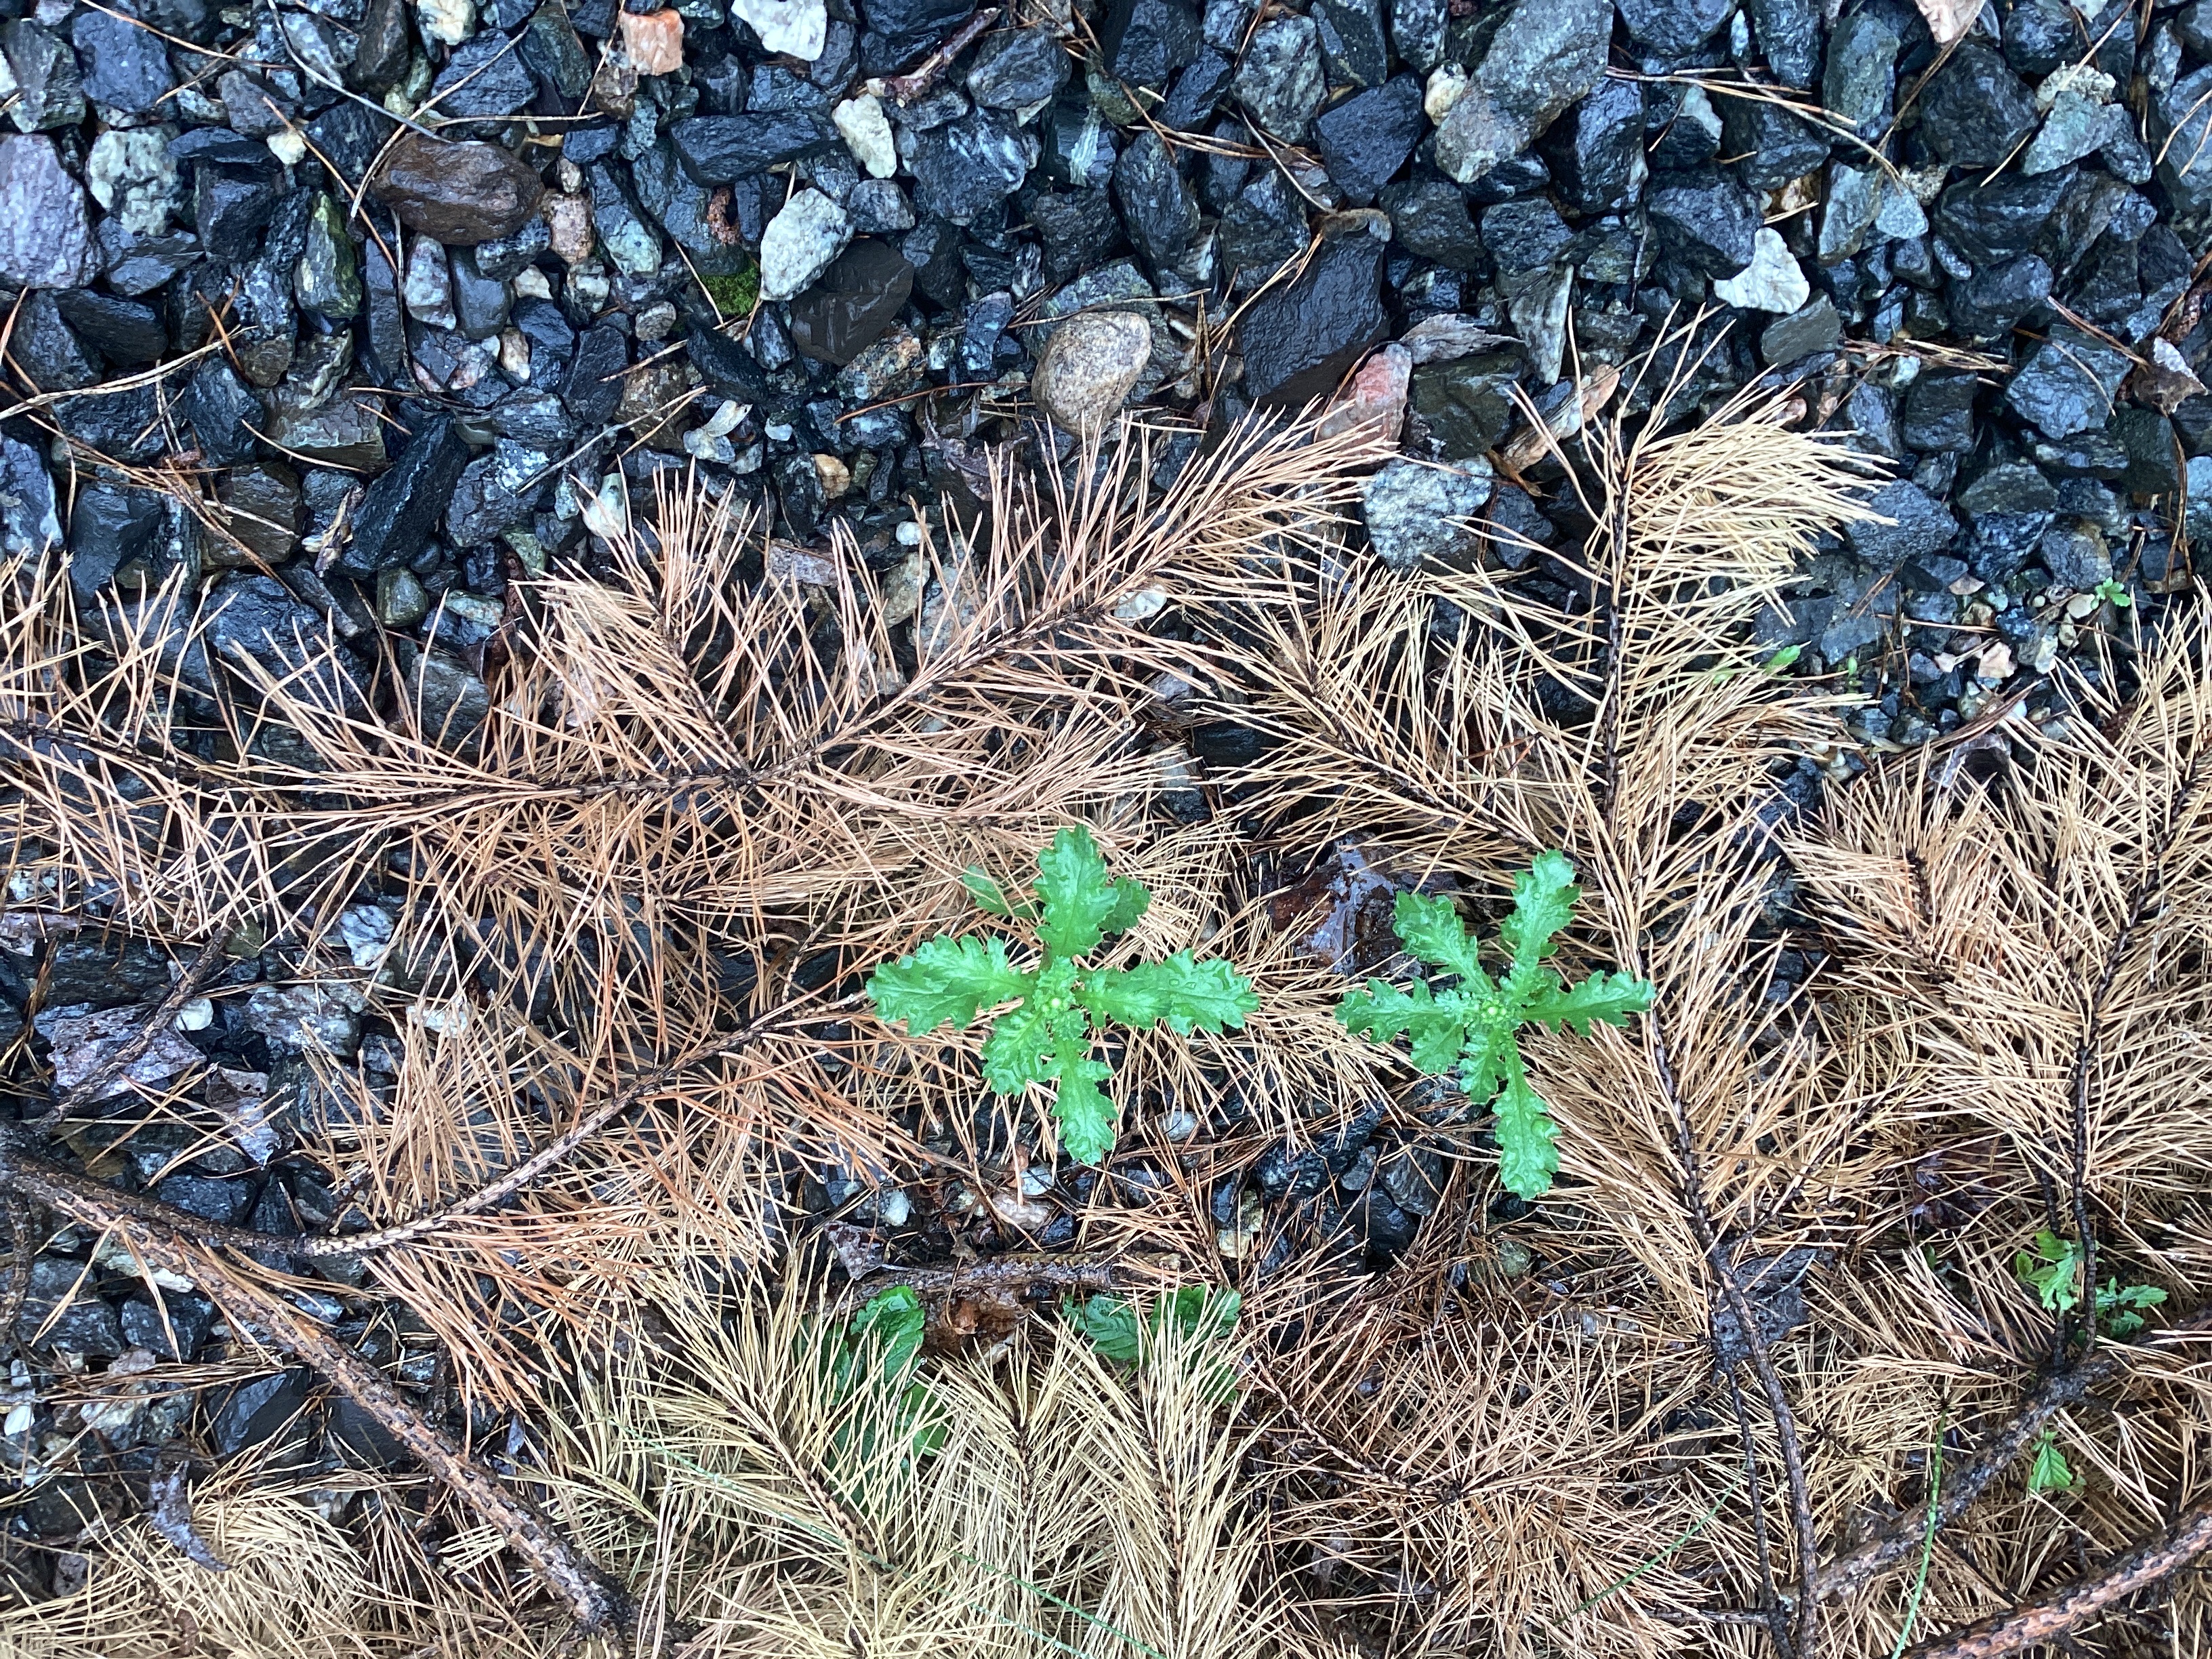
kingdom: Plantae
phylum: Tracheophyta
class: Magnoliopsida
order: Asterales
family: Asteraceae
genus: Senecio
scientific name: Senecio viscosus
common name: klistersvineblom
